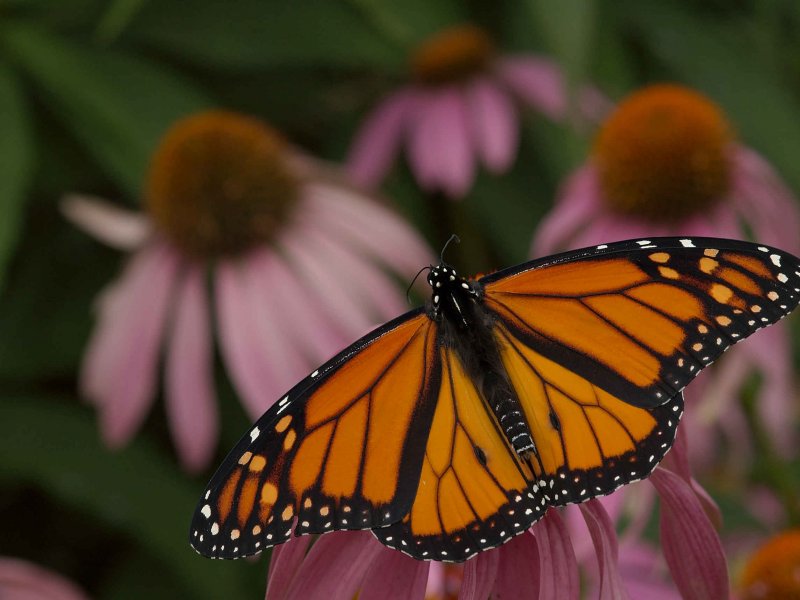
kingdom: Animalia
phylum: Arthropoda
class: Insecta
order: Lepidoptera
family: Nymphalidae
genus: Danaus
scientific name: Danaus plexippus
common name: Monarch
